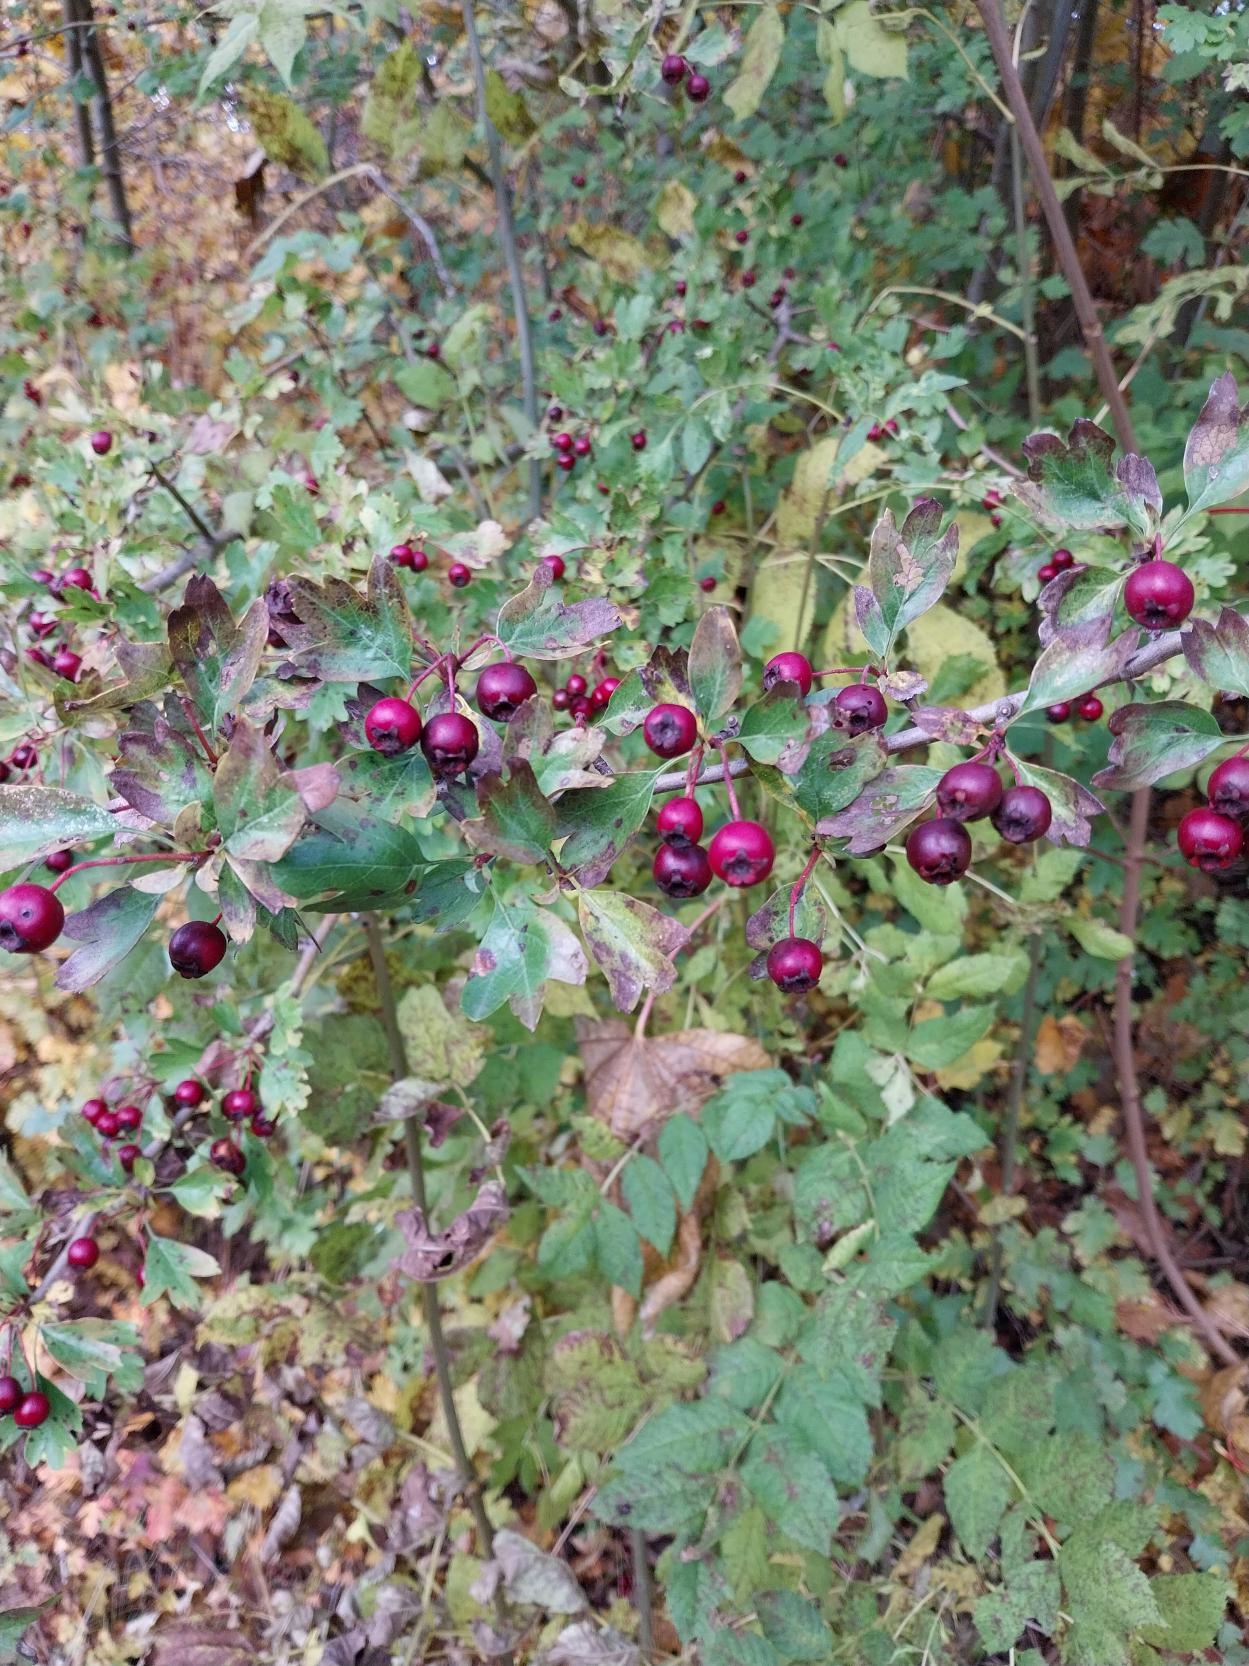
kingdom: Plantae
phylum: Tracheophyta
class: Magnoliopsida
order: Rosales
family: Rosaceae
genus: Crataegus
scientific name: Crataegus media
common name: Almindelig hvidtjørn × engriflet hvidtjørn
